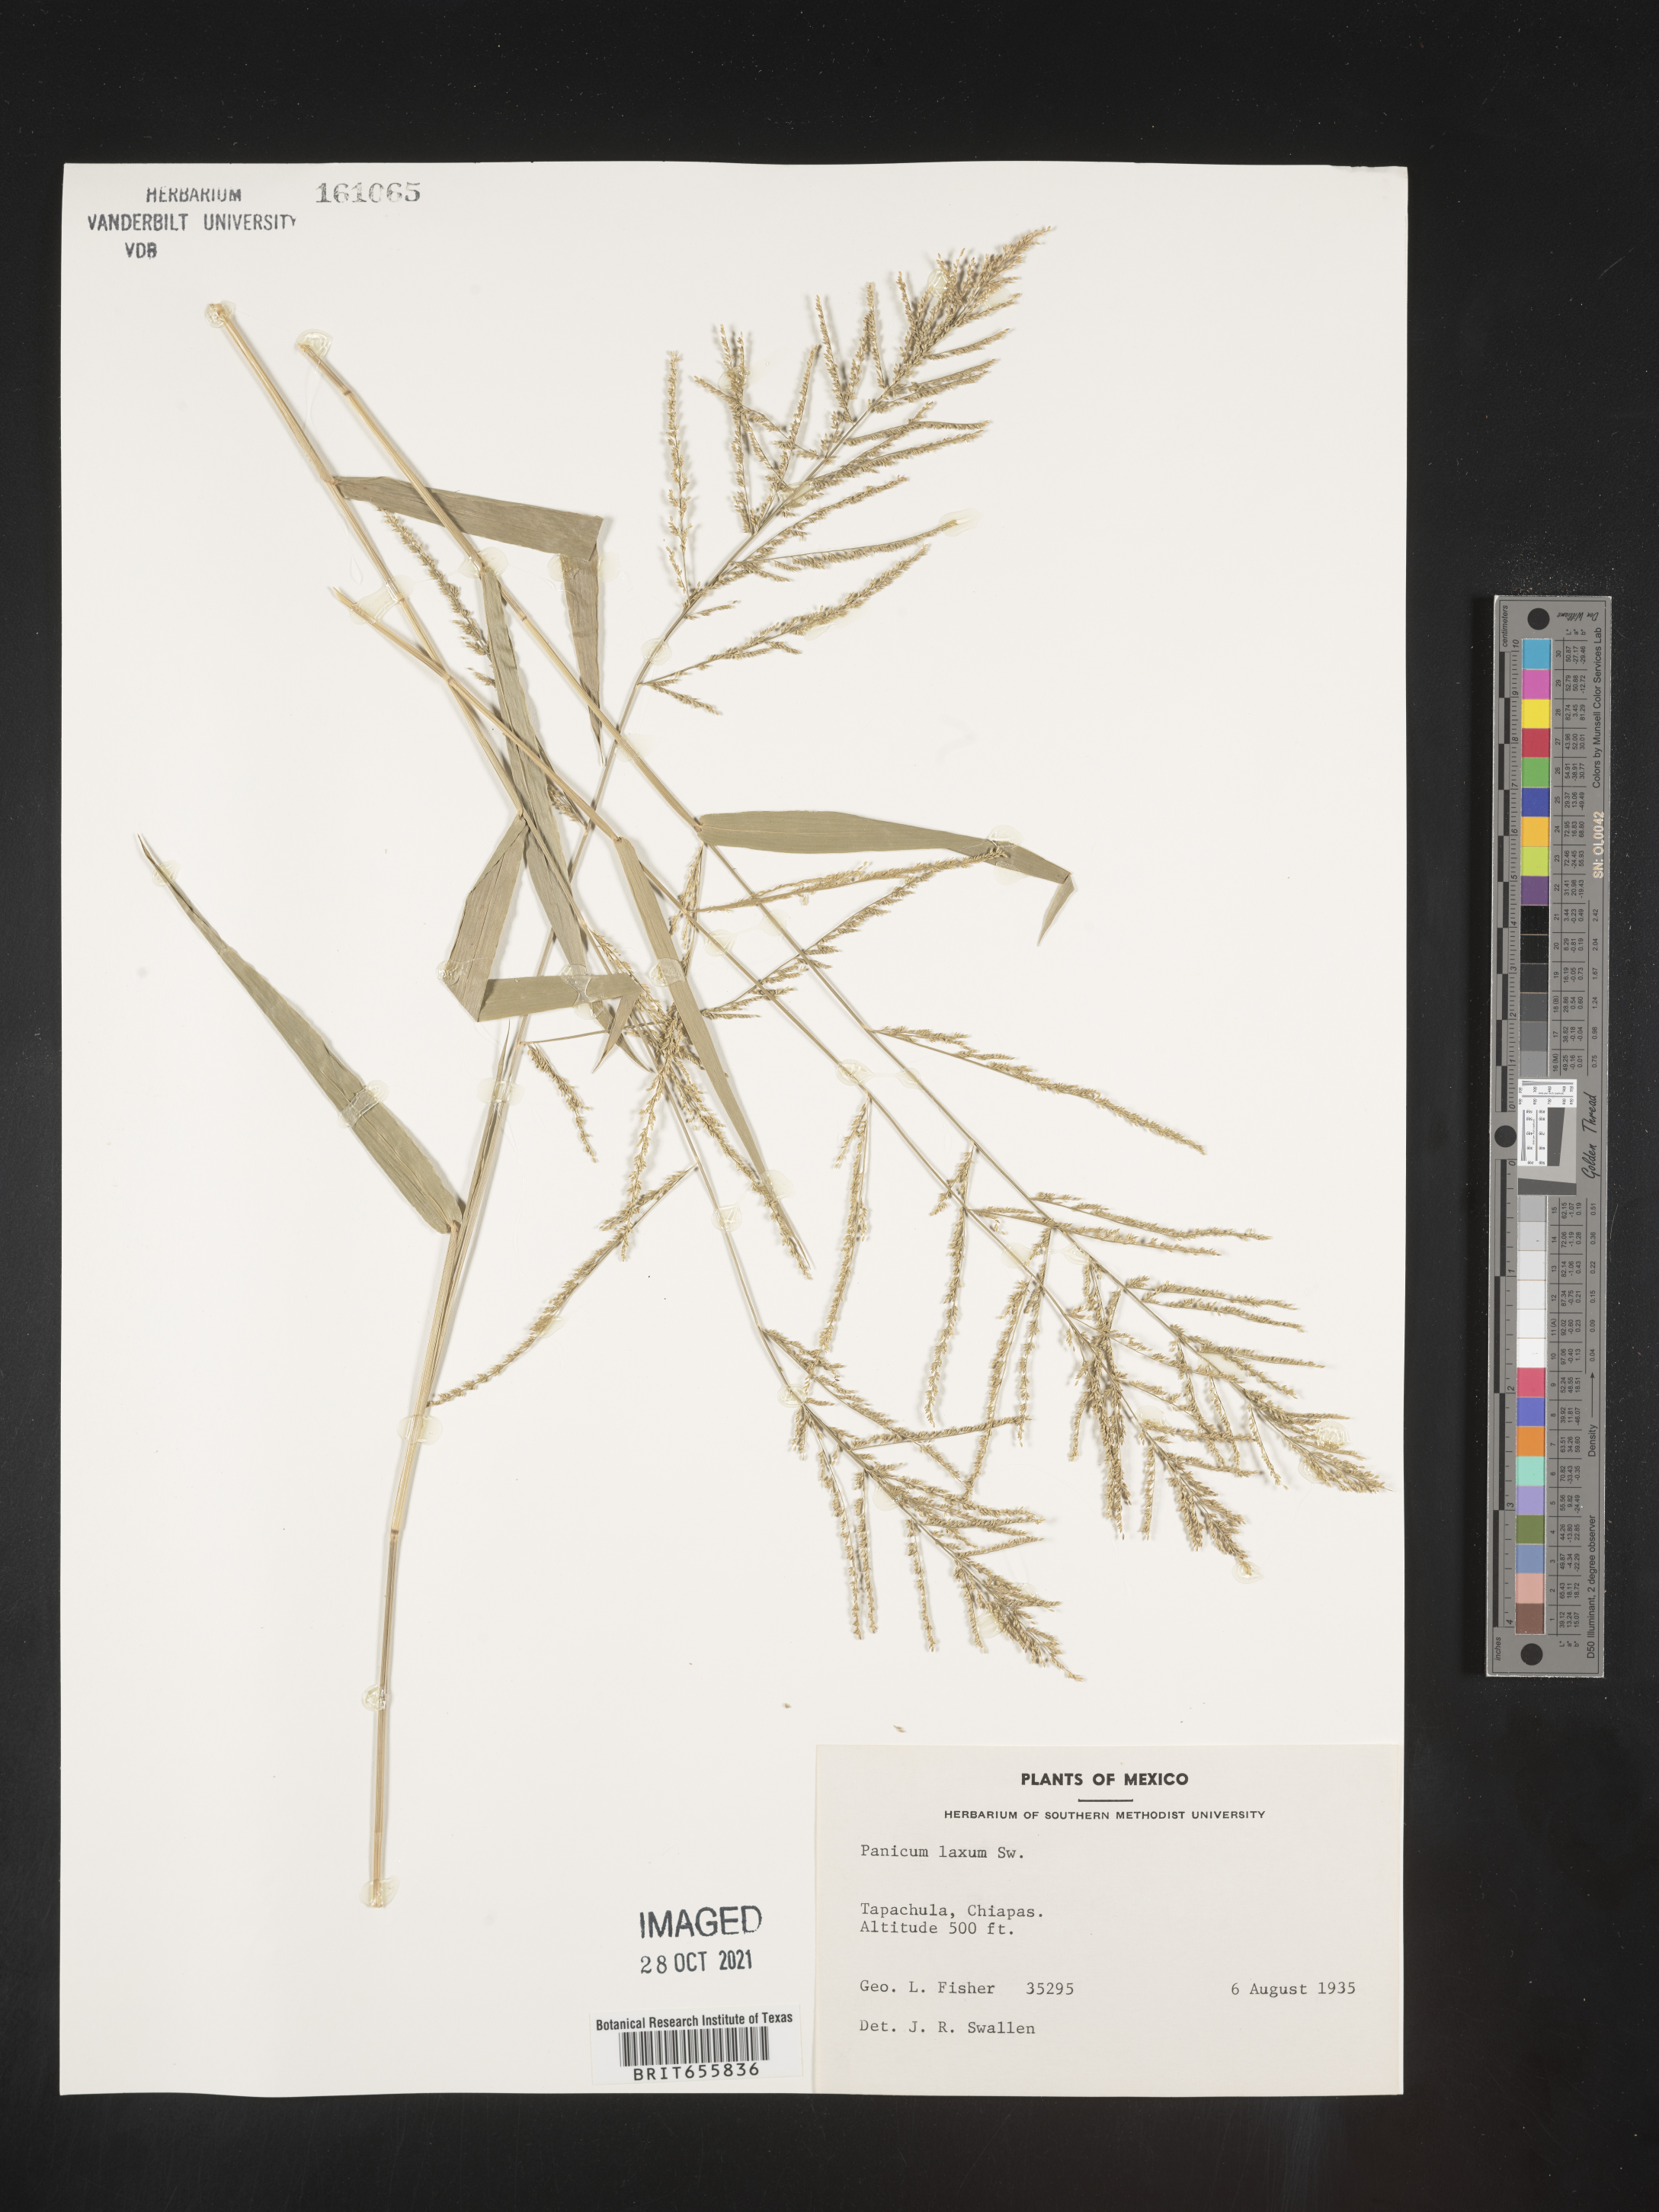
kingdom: Plantae
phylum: Tracheophyta
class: Liliopsida
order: Poales
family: Poaceae
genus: Panicum
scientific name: Panicum
